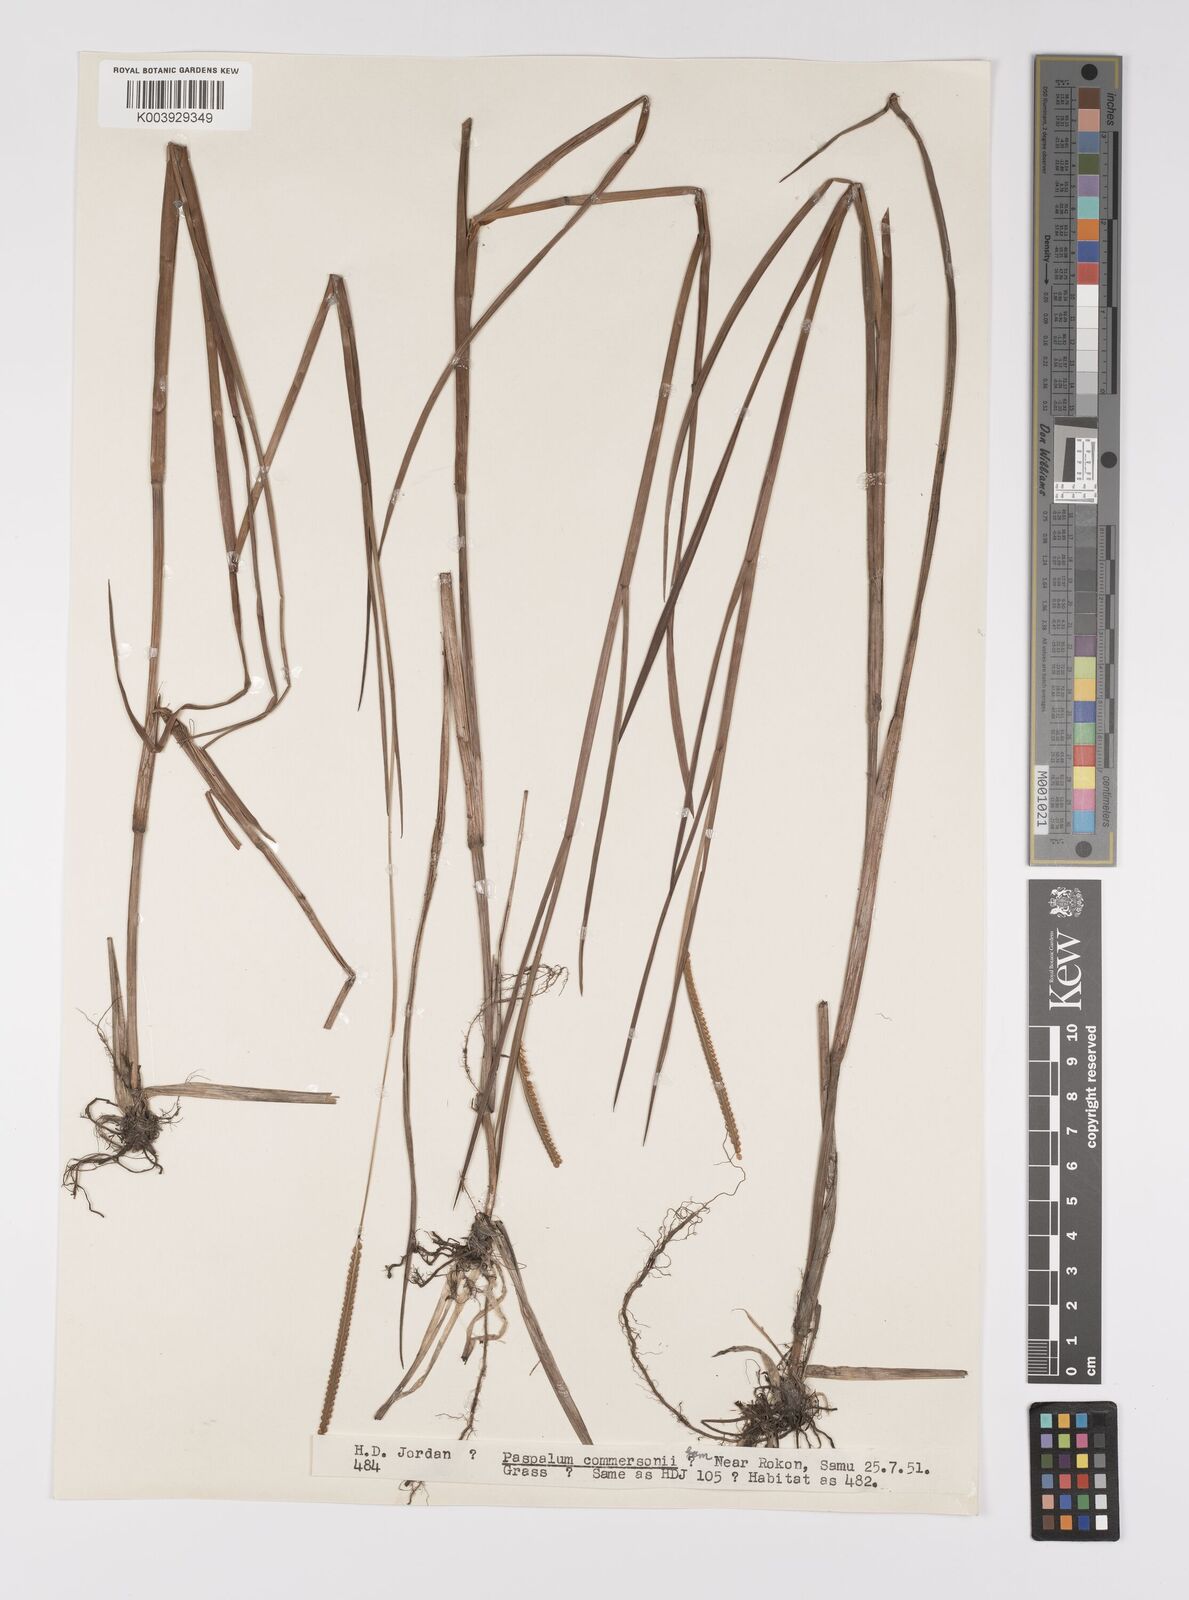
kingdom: Plantae
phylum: Tracheophyta
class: Liliopsida
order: Poales
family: Poaceae
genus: Paspalum
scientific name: Paspalum scrobiculatum
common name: Kodo millet
